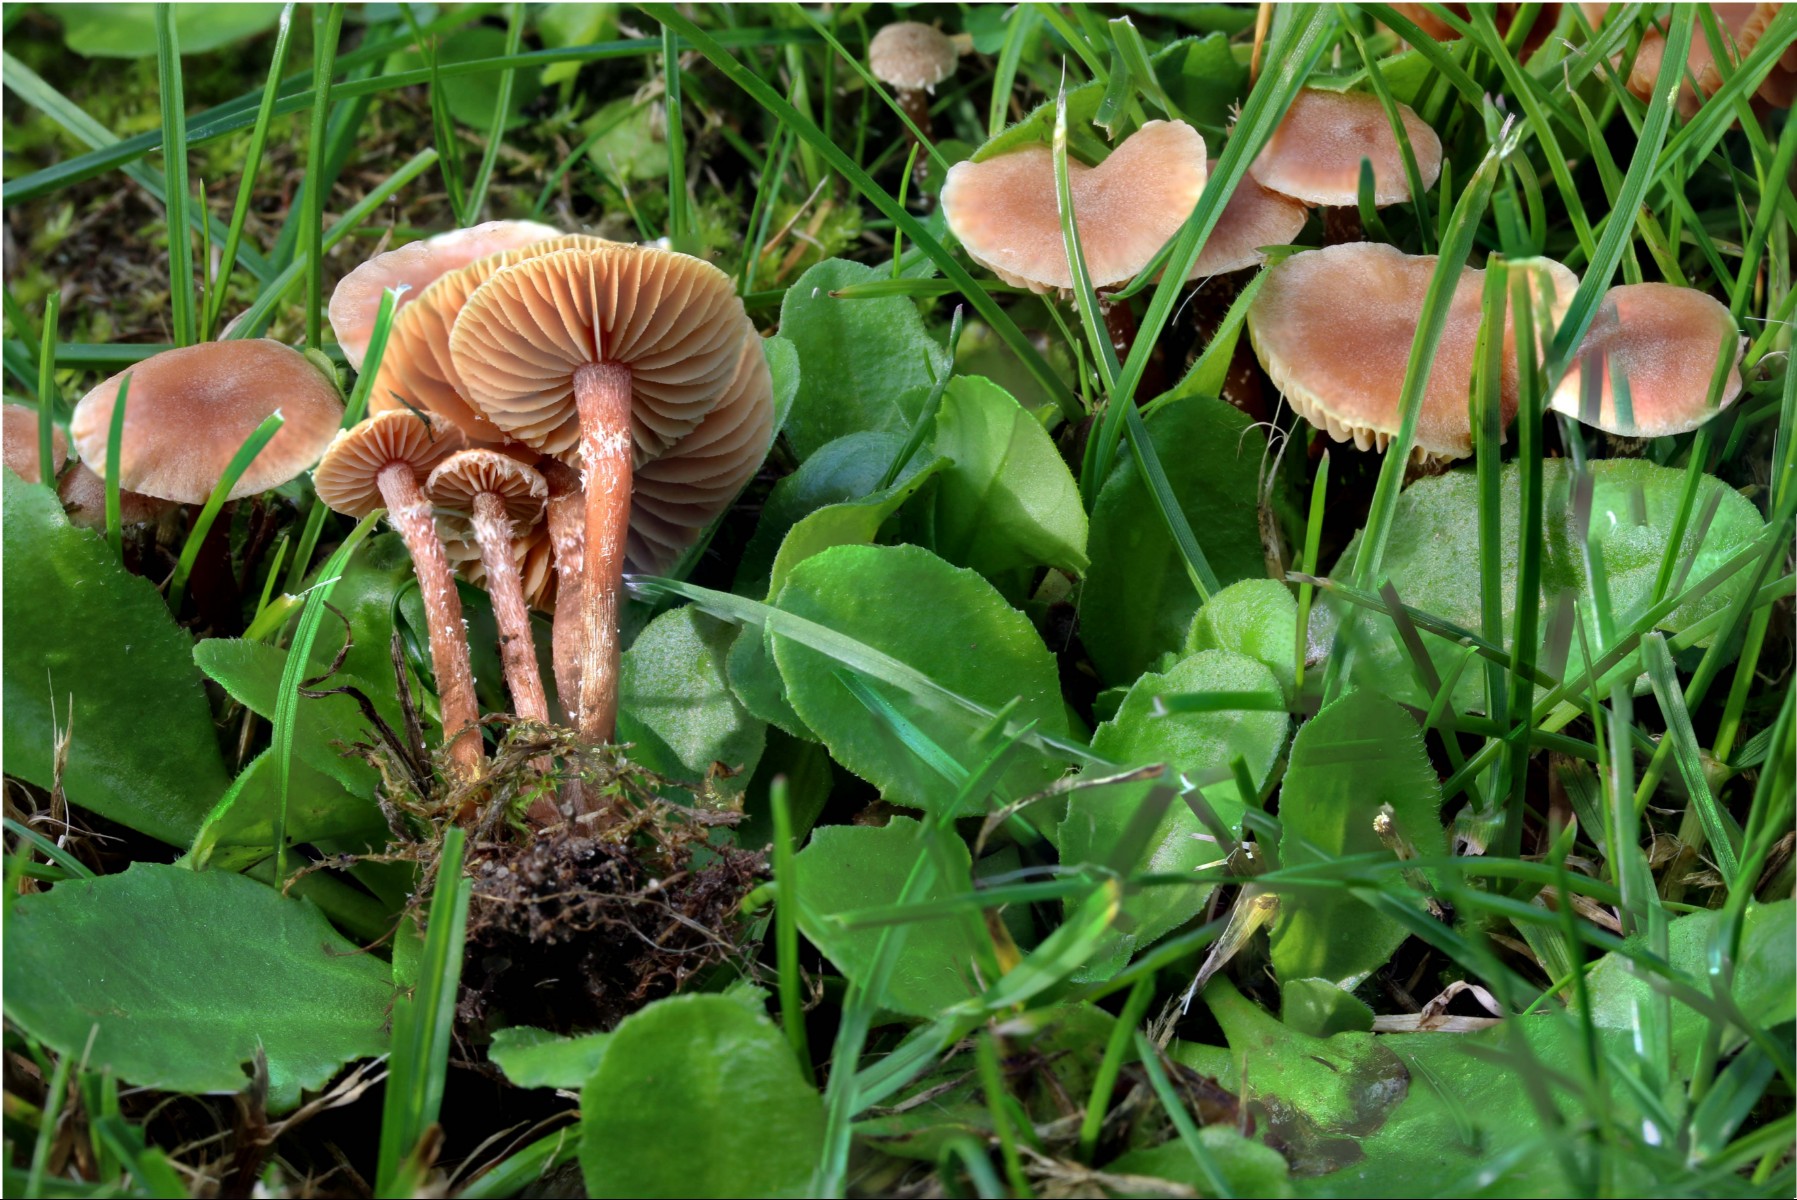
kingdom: Fungi
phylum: Basidiomycota
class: Agaricomycetes
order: Agaricales
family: Tubariaceae
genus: Tubaria
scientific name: Tubaria conspersa
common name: bleg fnughat
